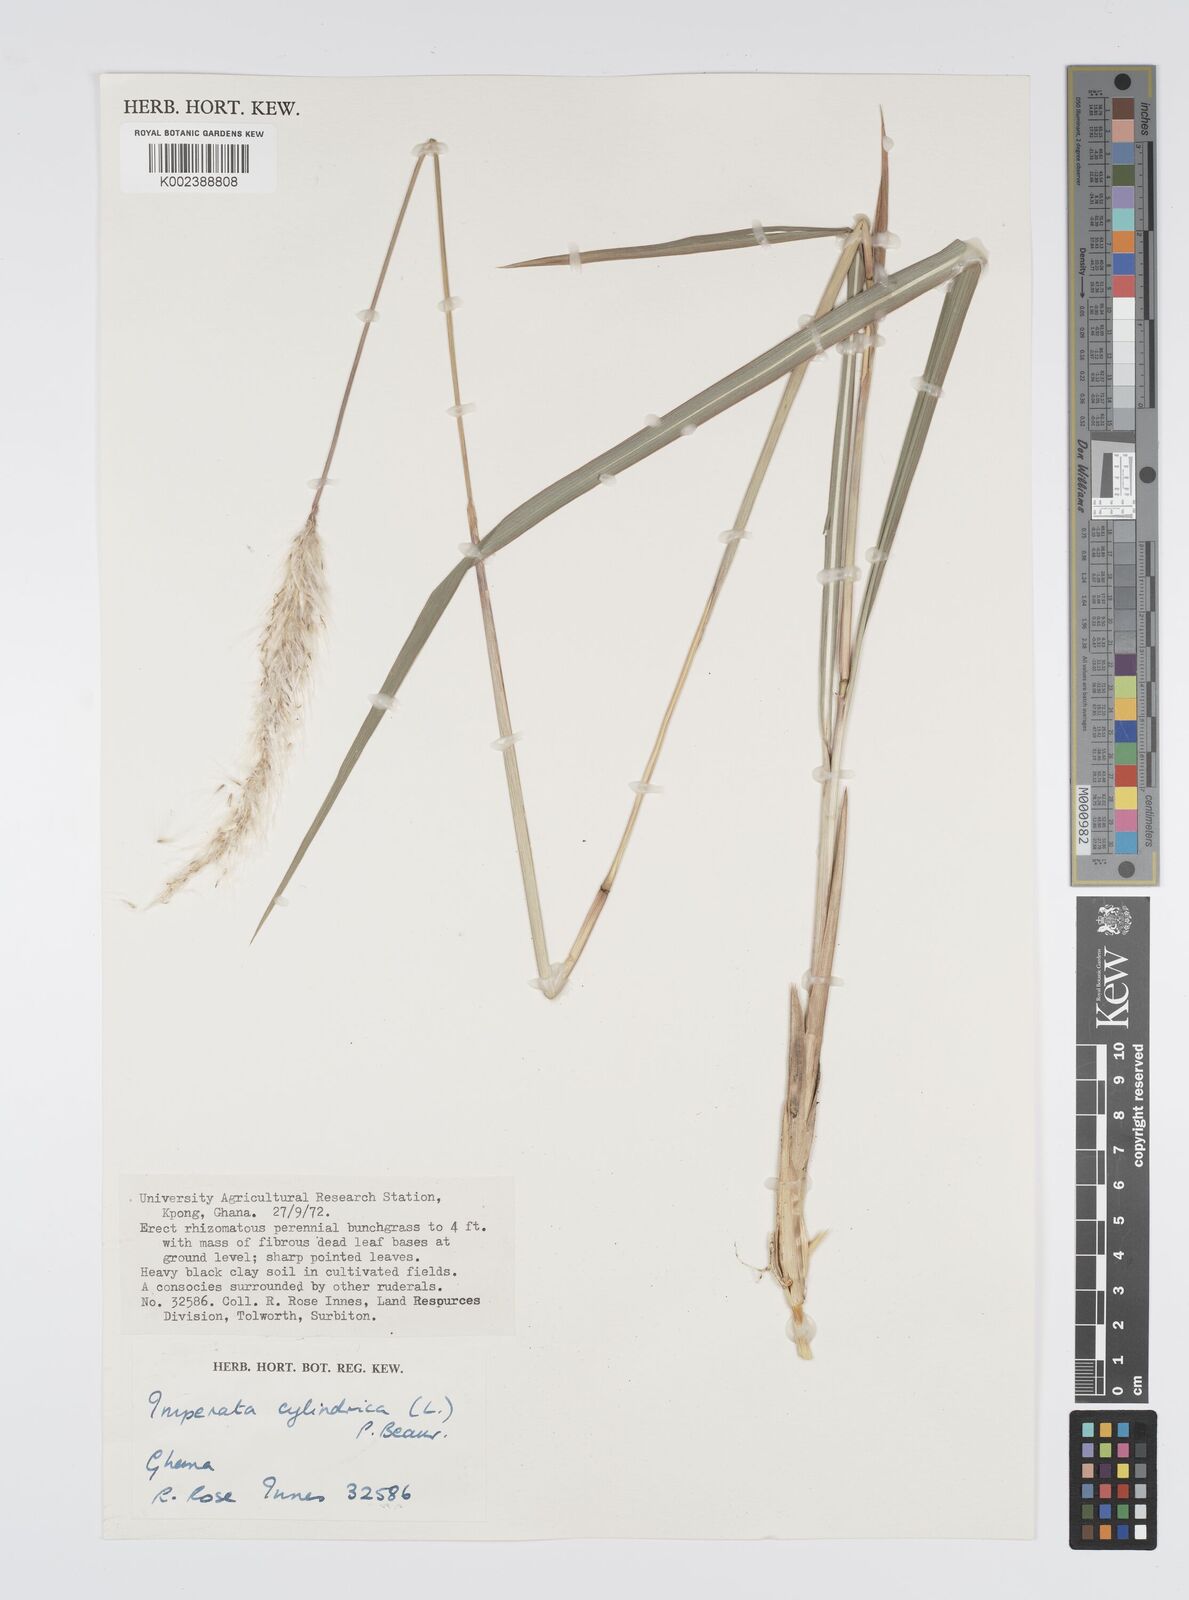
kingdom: Plantae
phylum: Tracheophyta
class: Liliopsida
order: Poales
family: Poaceae
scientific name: Poaceae
